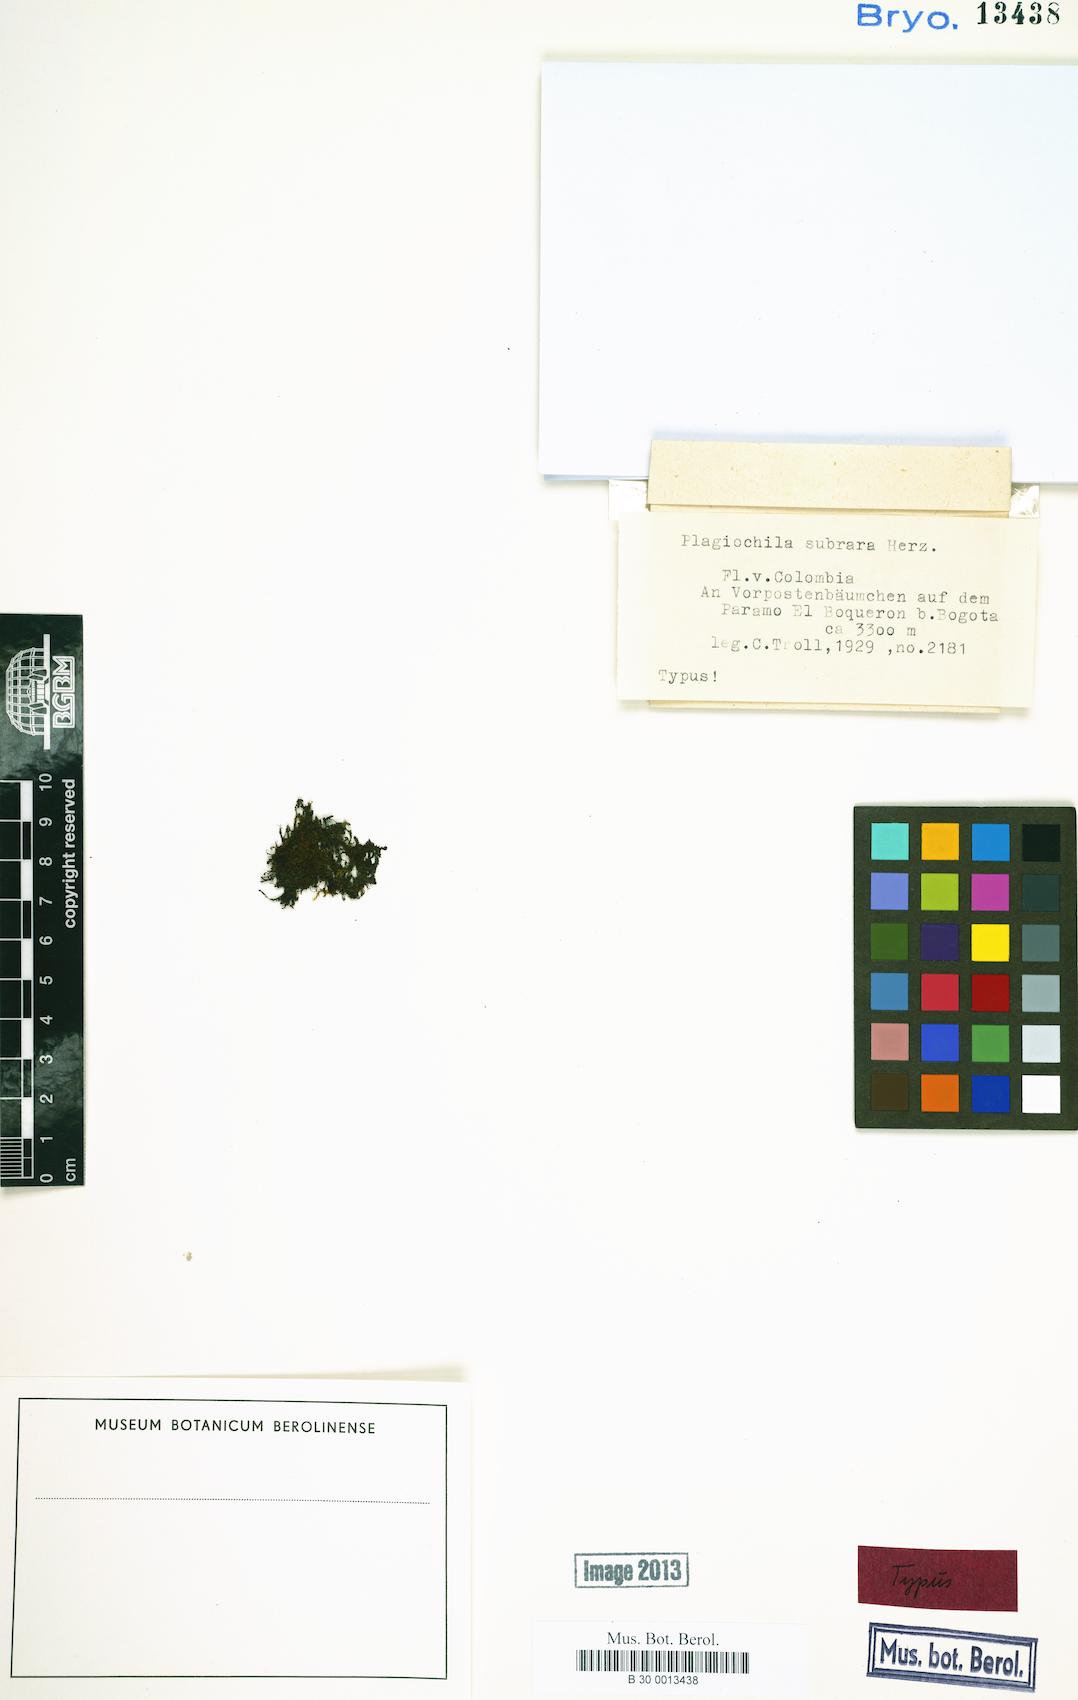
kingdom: Plantae
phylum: Marchantiophyta
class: Jungermanniopsida
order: Jungermanniales
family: Plagiochilaceae
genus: Plagiochila
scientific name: Plagiochila punctata
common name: Spotty featherwort
